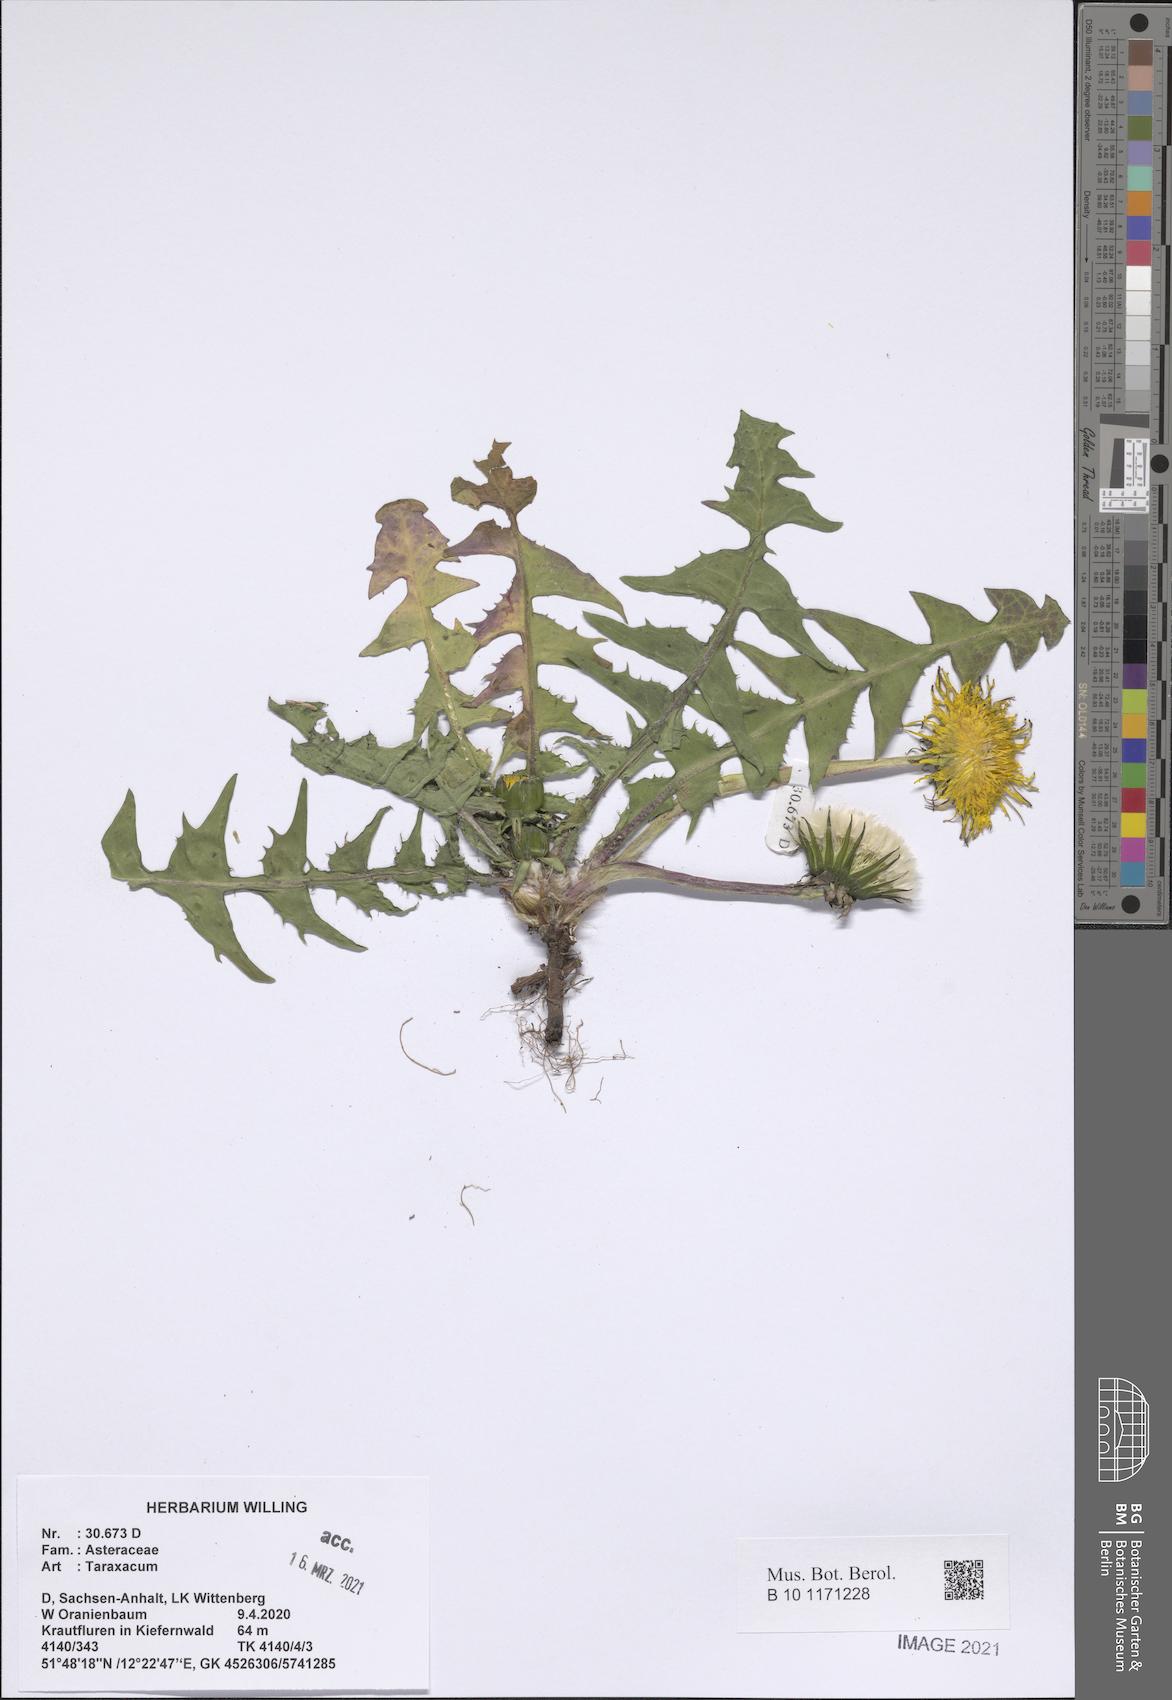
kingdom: Plantae
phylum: Tracheophyta
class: Magnoliopsida
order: Asterales
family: Asteraceae
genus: Taraxacum
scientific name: Taraxacum
